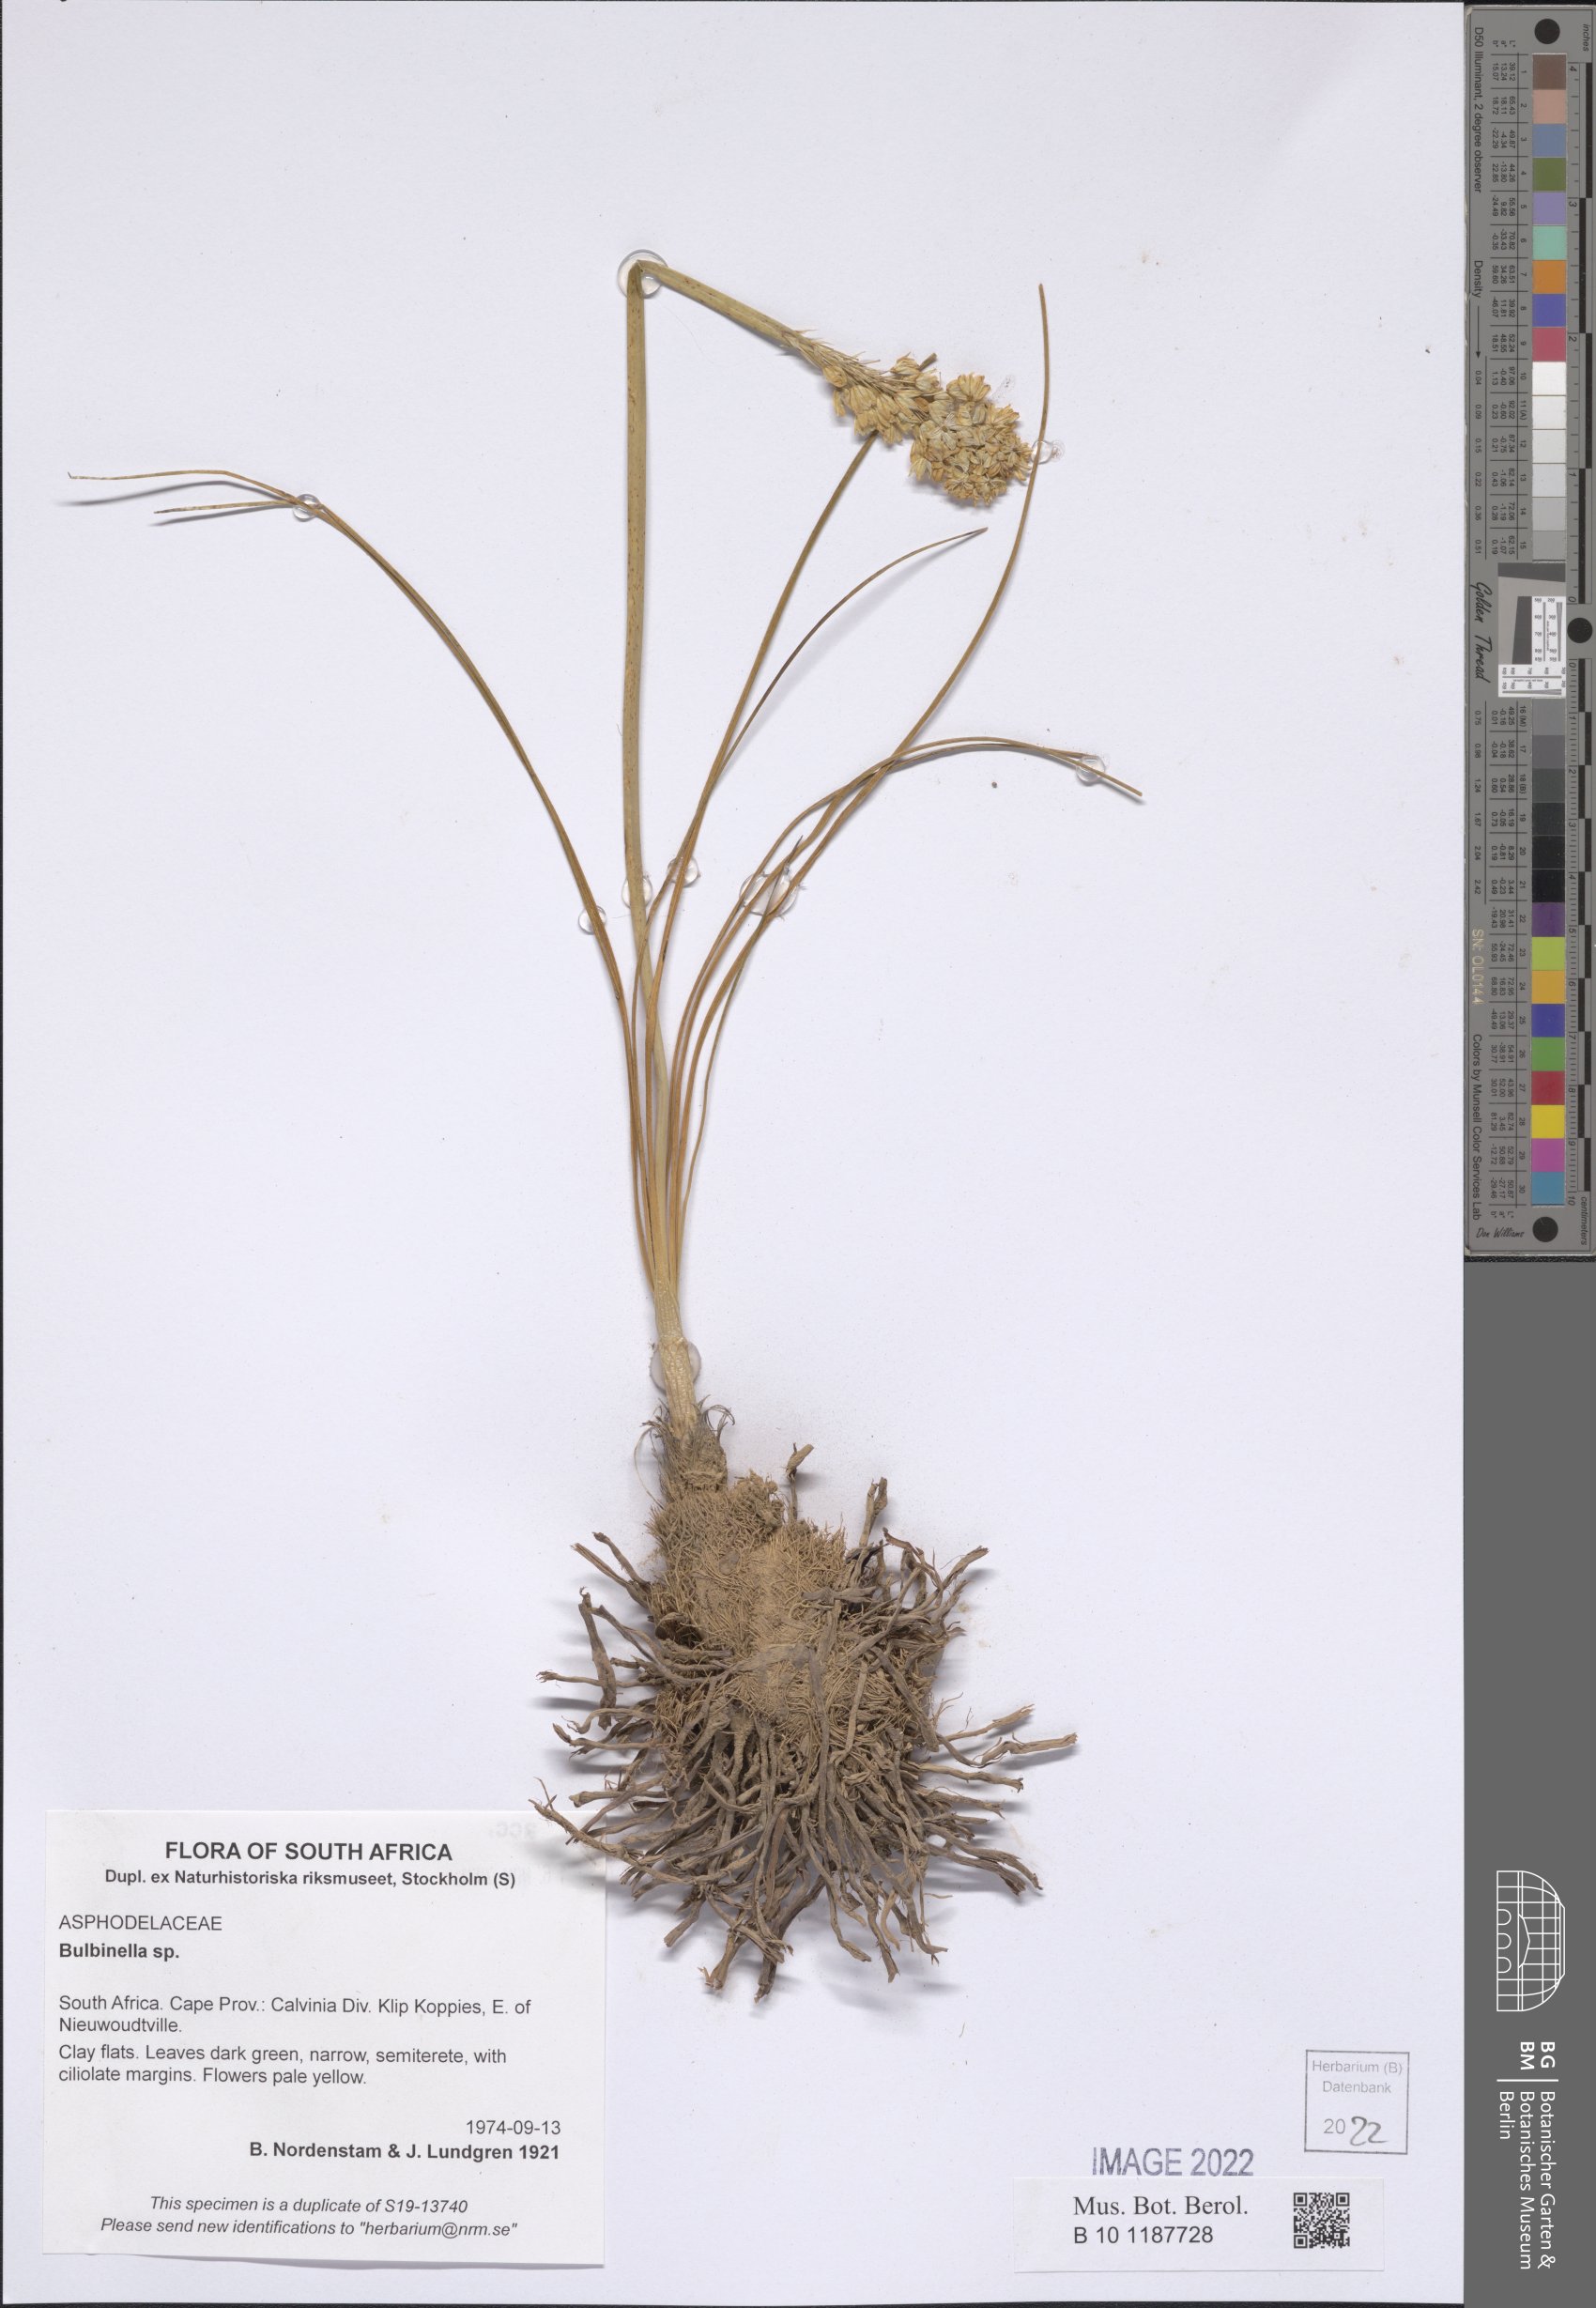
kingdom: Plantae
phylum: Tracheophyta
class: Liliopsida
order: Asparagales
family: Asphodelaceae
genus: Bulbinella
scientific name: Bulbinella
